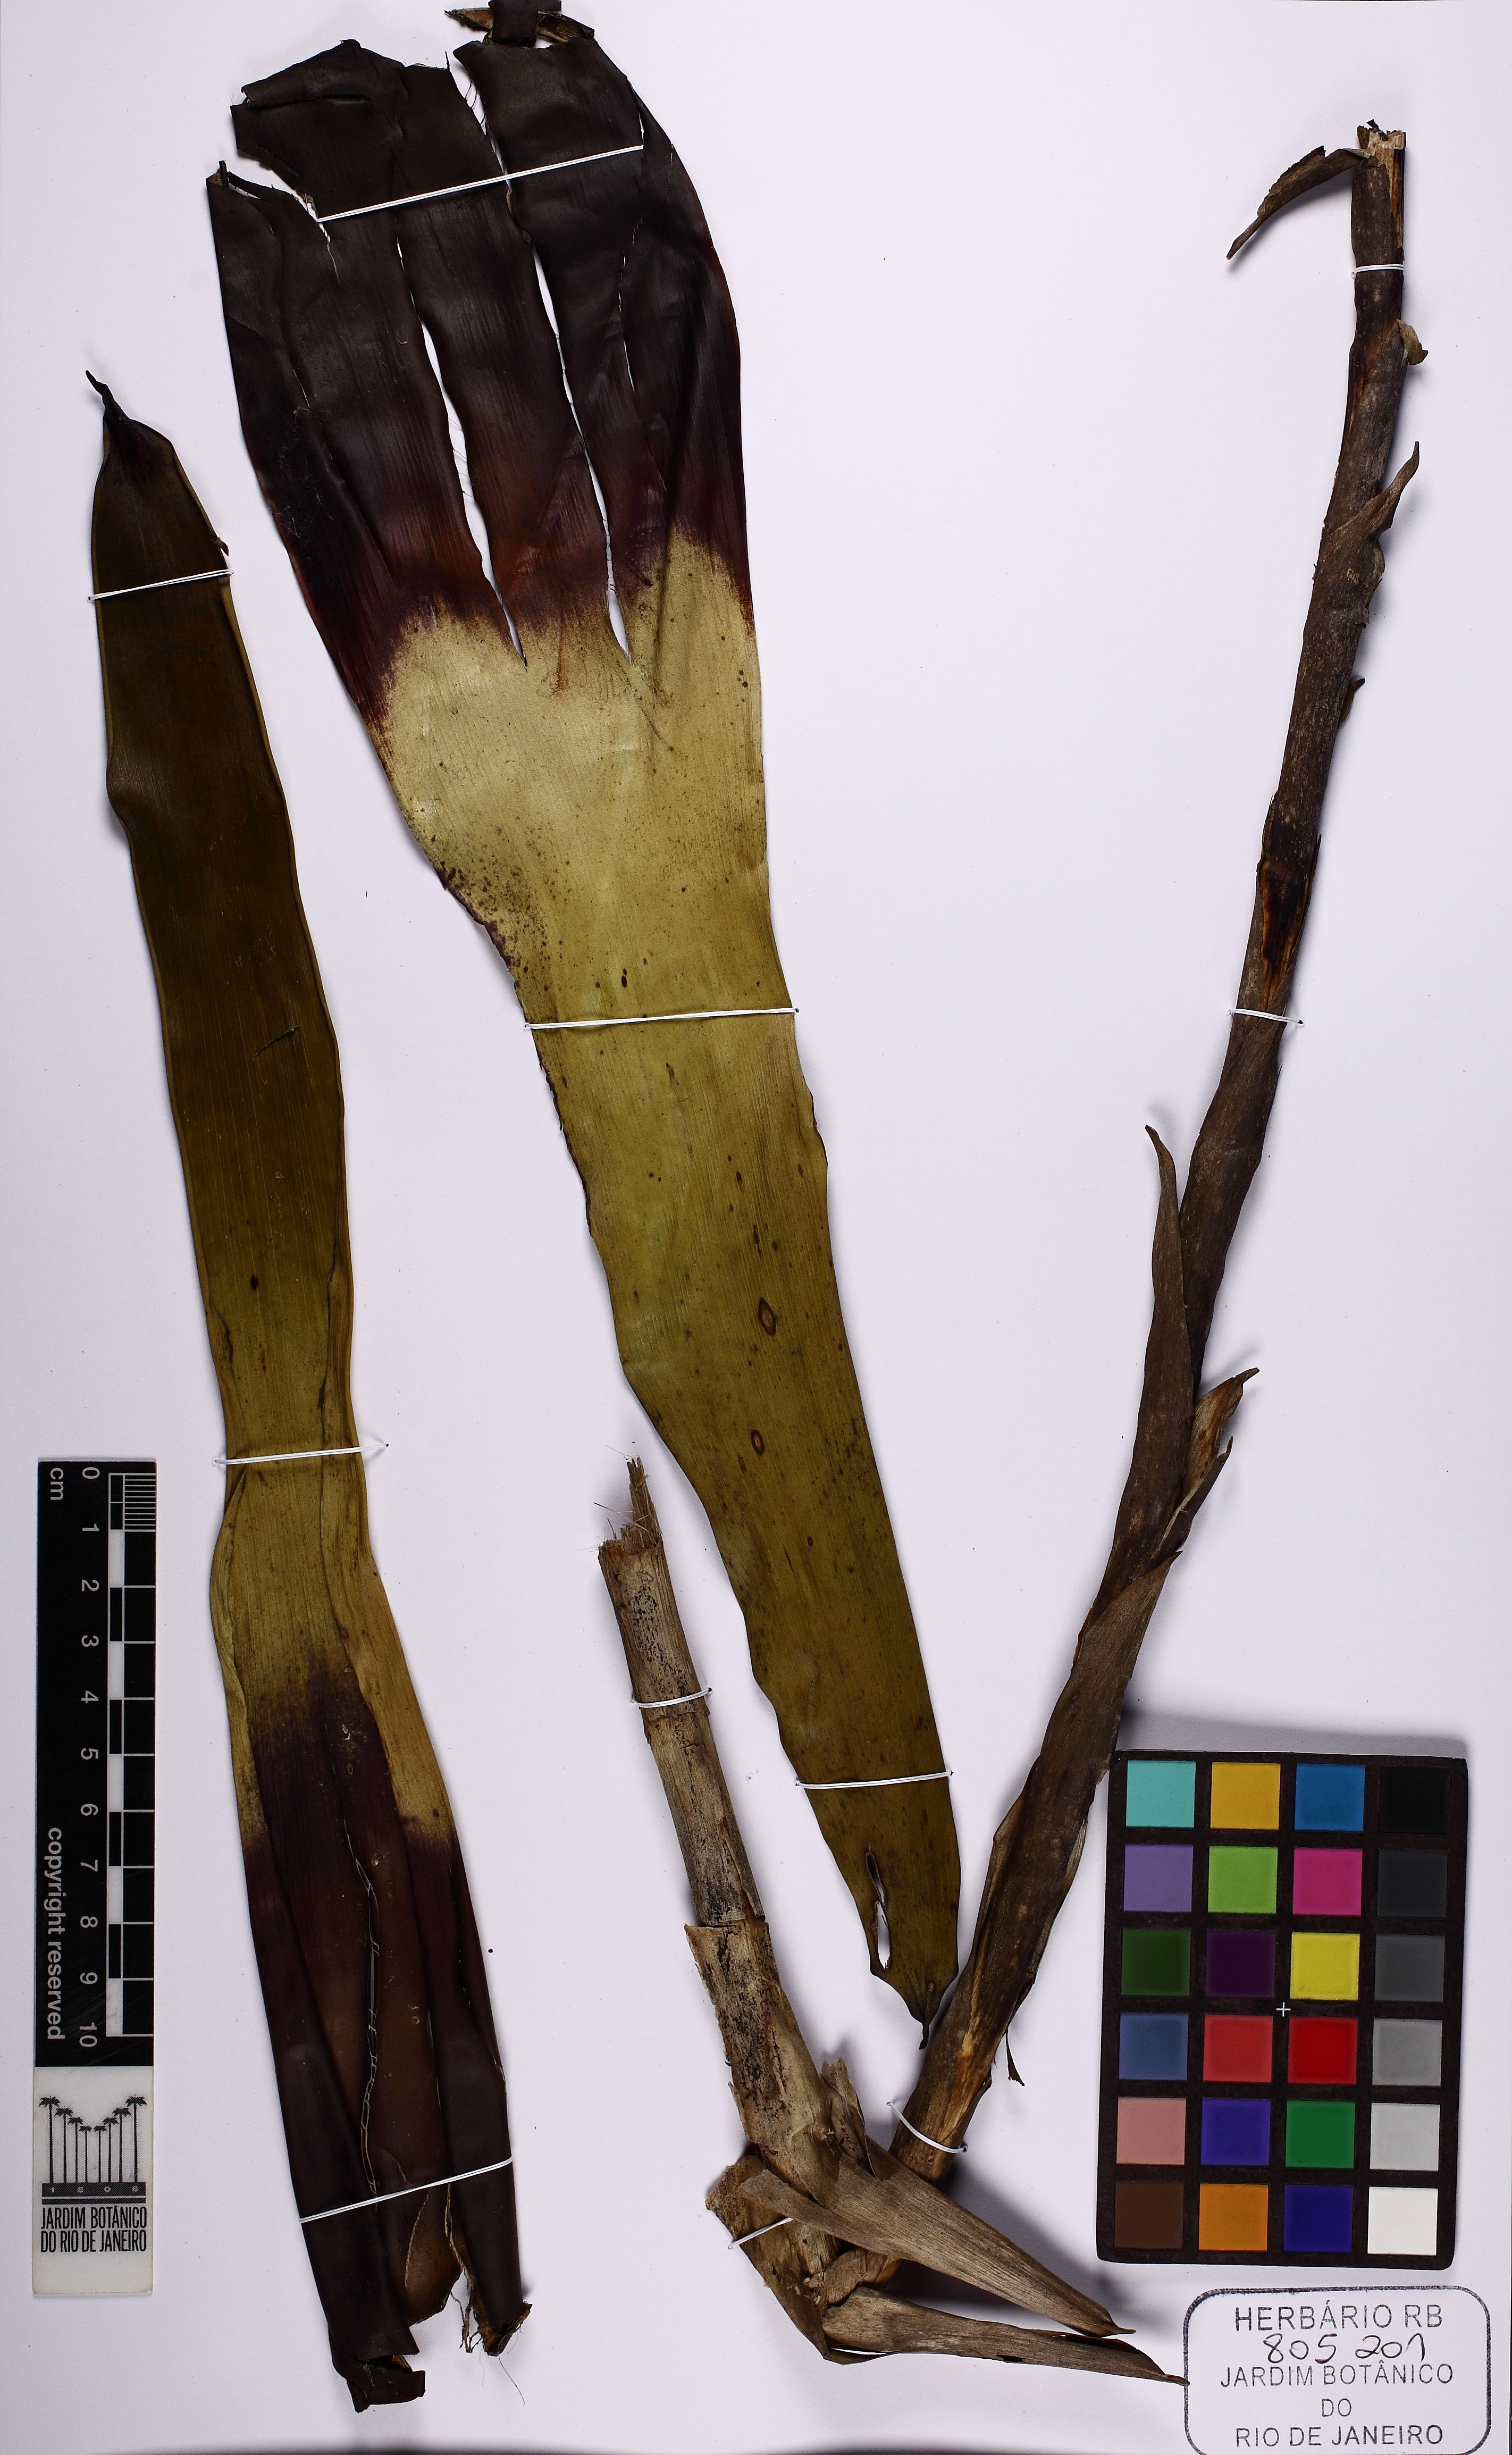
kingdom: Plantae
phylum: Tracheophyta
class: Liliopsida
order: Poales
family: Bromeliaceae
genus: Vriesea
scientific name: Vriesea
